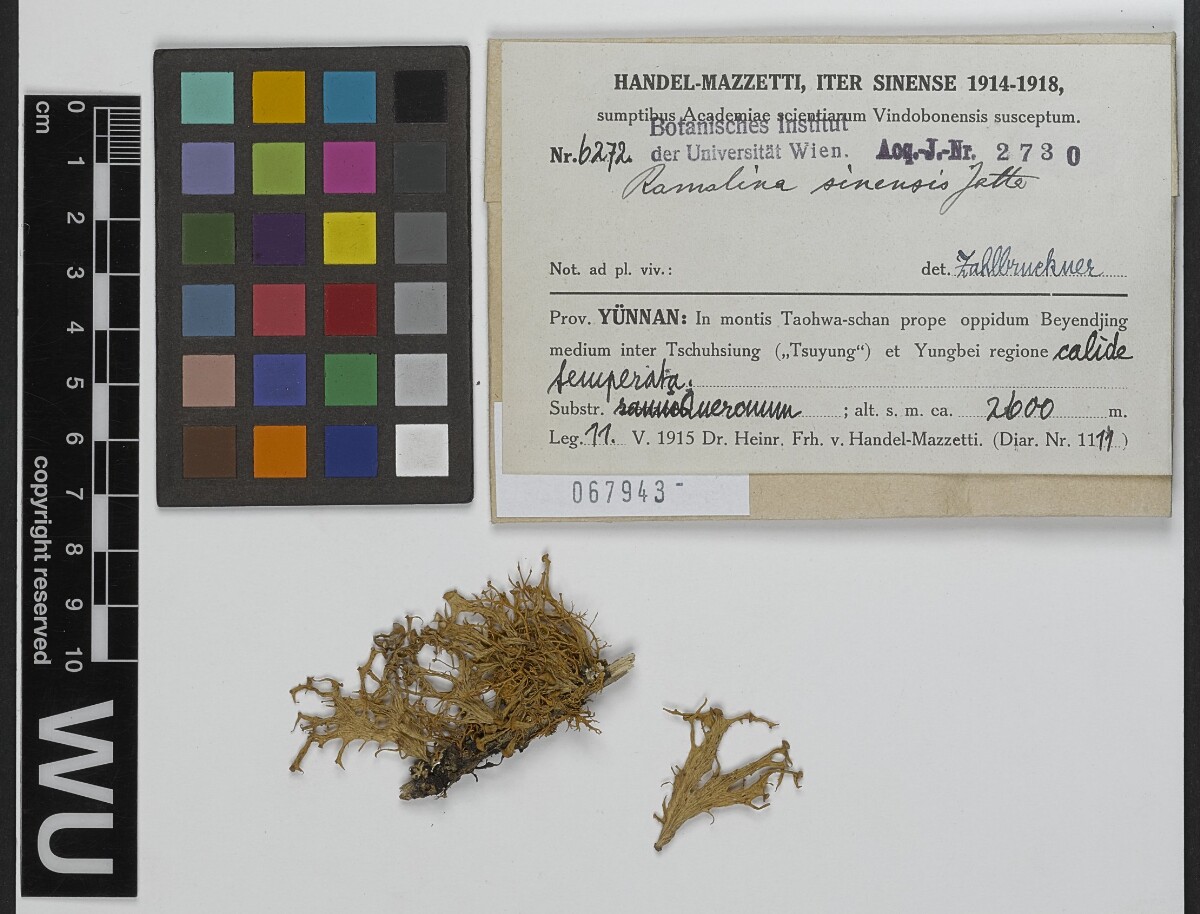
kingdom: Fungi
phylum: Ascomycota
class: Lecanoromycetes
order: Lecanorales
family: Ramalinaceae
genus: Ramalina
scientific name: Ramalina sinensis
